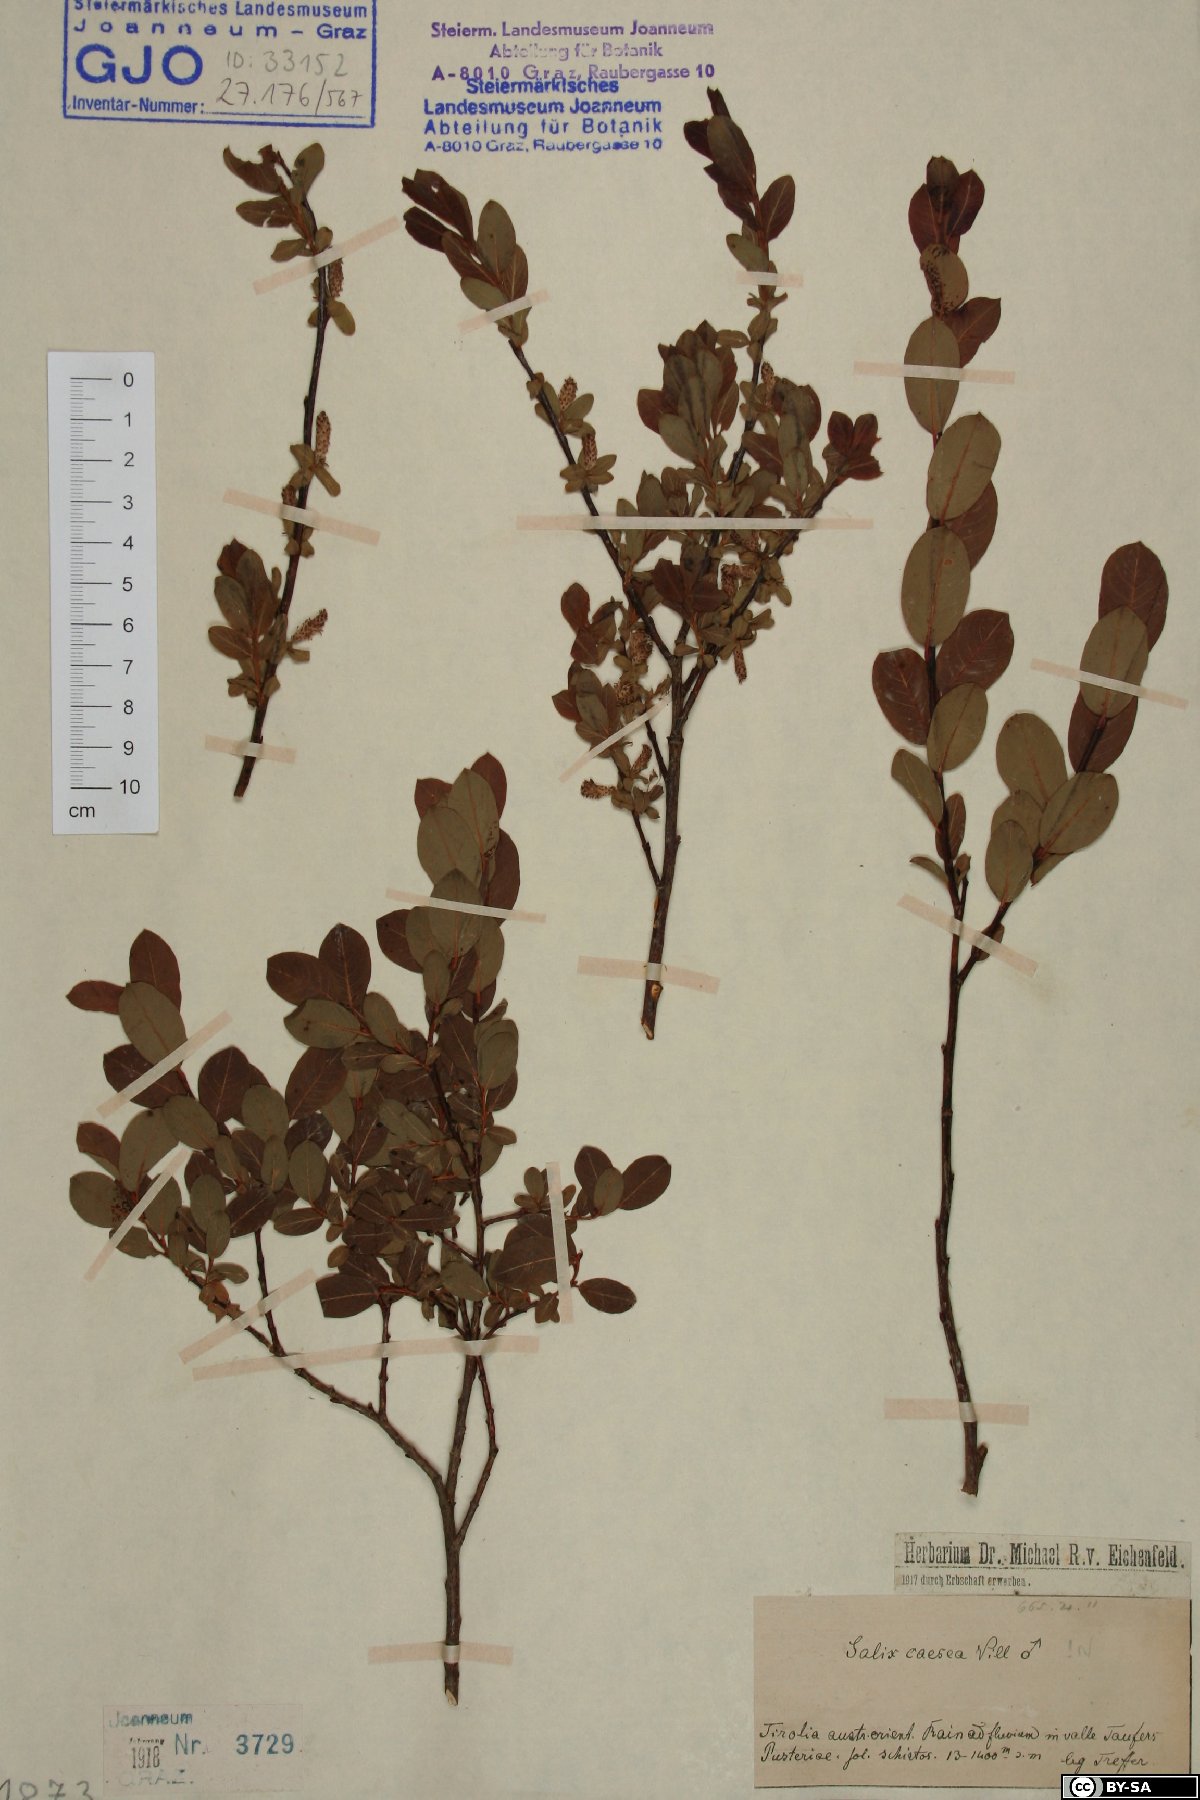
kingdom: Plantae
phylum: Tracheophyta
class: Magnoliopsida
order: Malpighiales
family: Salicaceae
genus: Salix
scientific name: Salix caesia
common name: Blue willow
